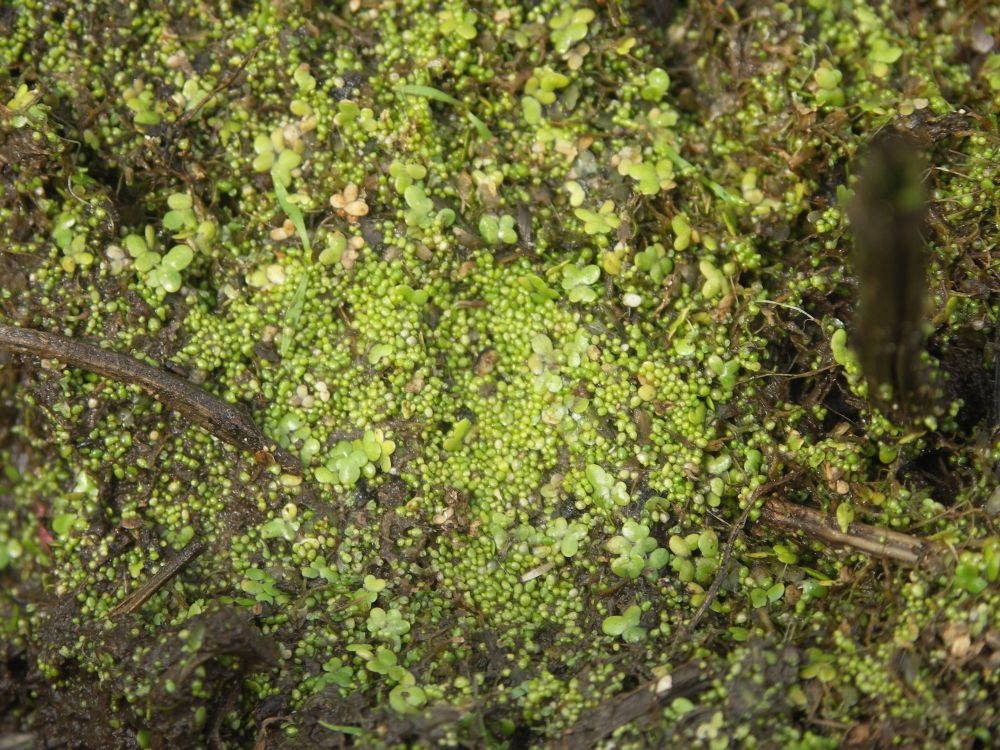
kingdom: Plantae
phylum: Tracheophyta
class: Liliopsida
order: Alismatales
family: Araceae
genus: Wolffia
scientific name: Wolffia arrhiza
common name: Rootless duckweed
